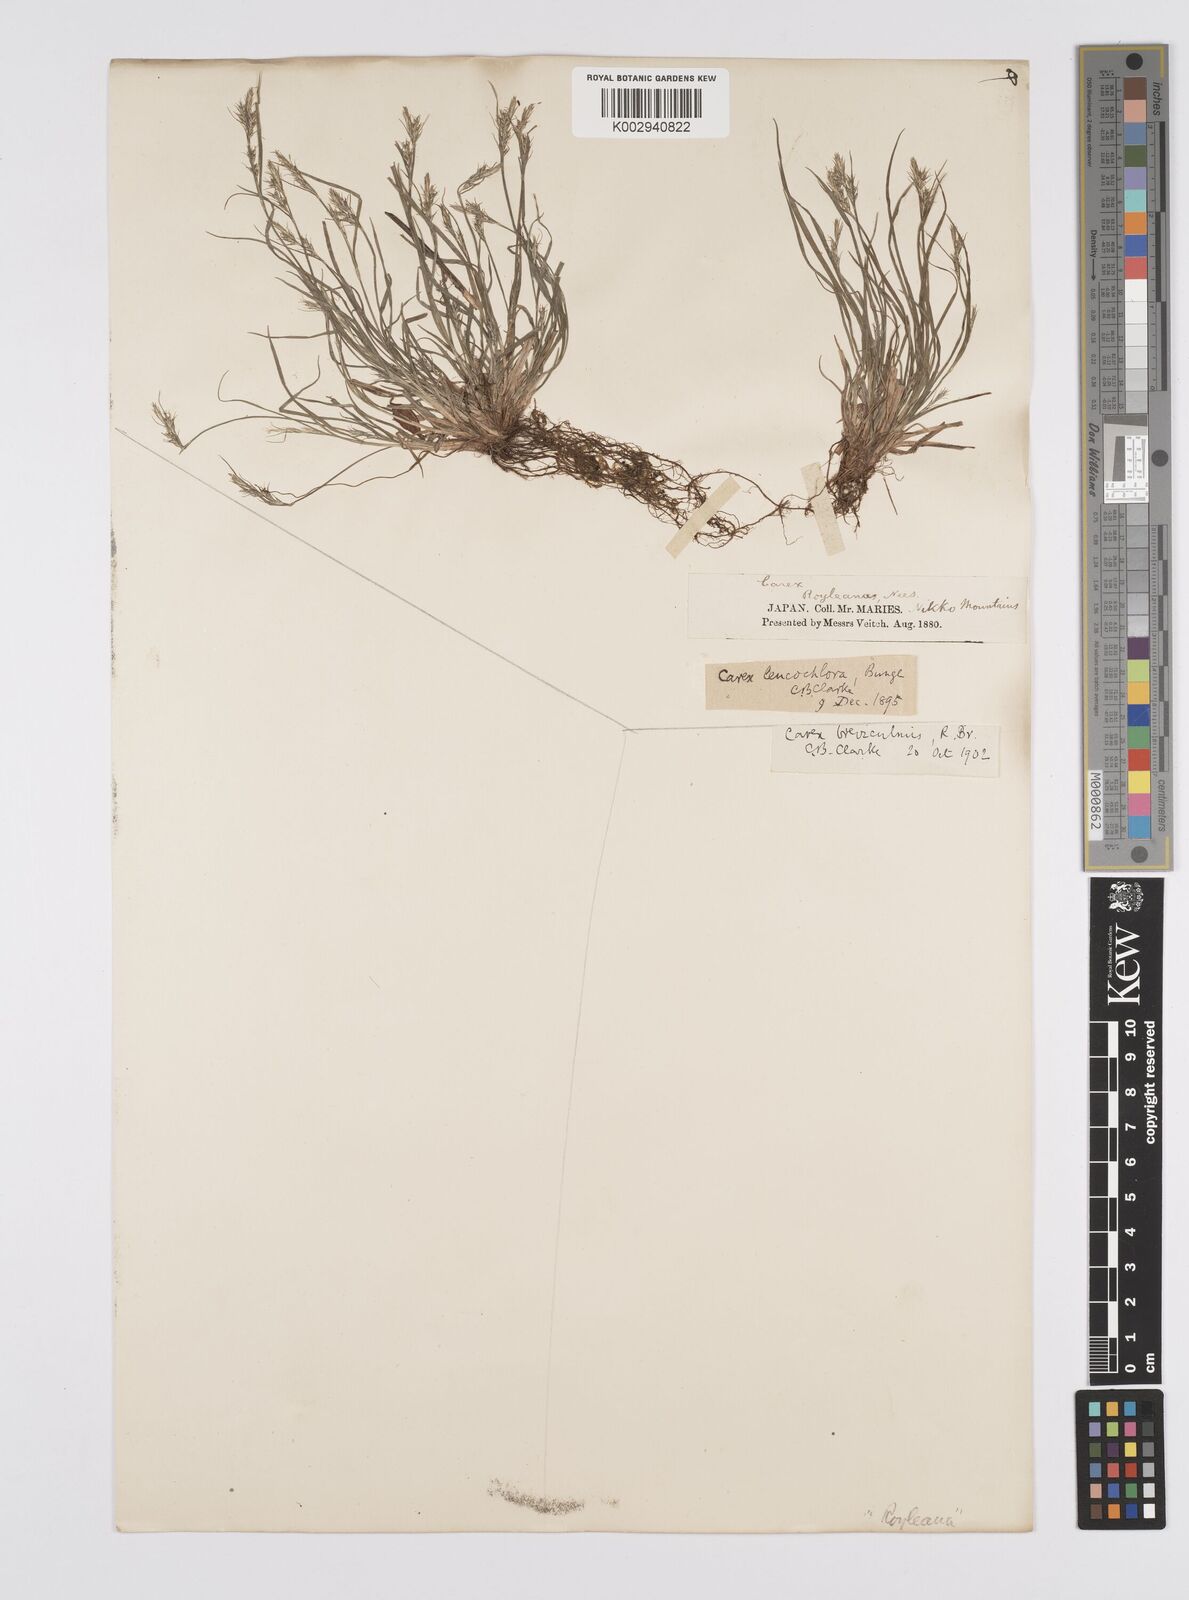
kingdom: Plantae
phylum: Tracheophyta
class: Liliopsida
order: Poales
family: Cyperaceae
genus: Carex
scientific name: Carex breviculmis
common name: Asian shortstem sedge
